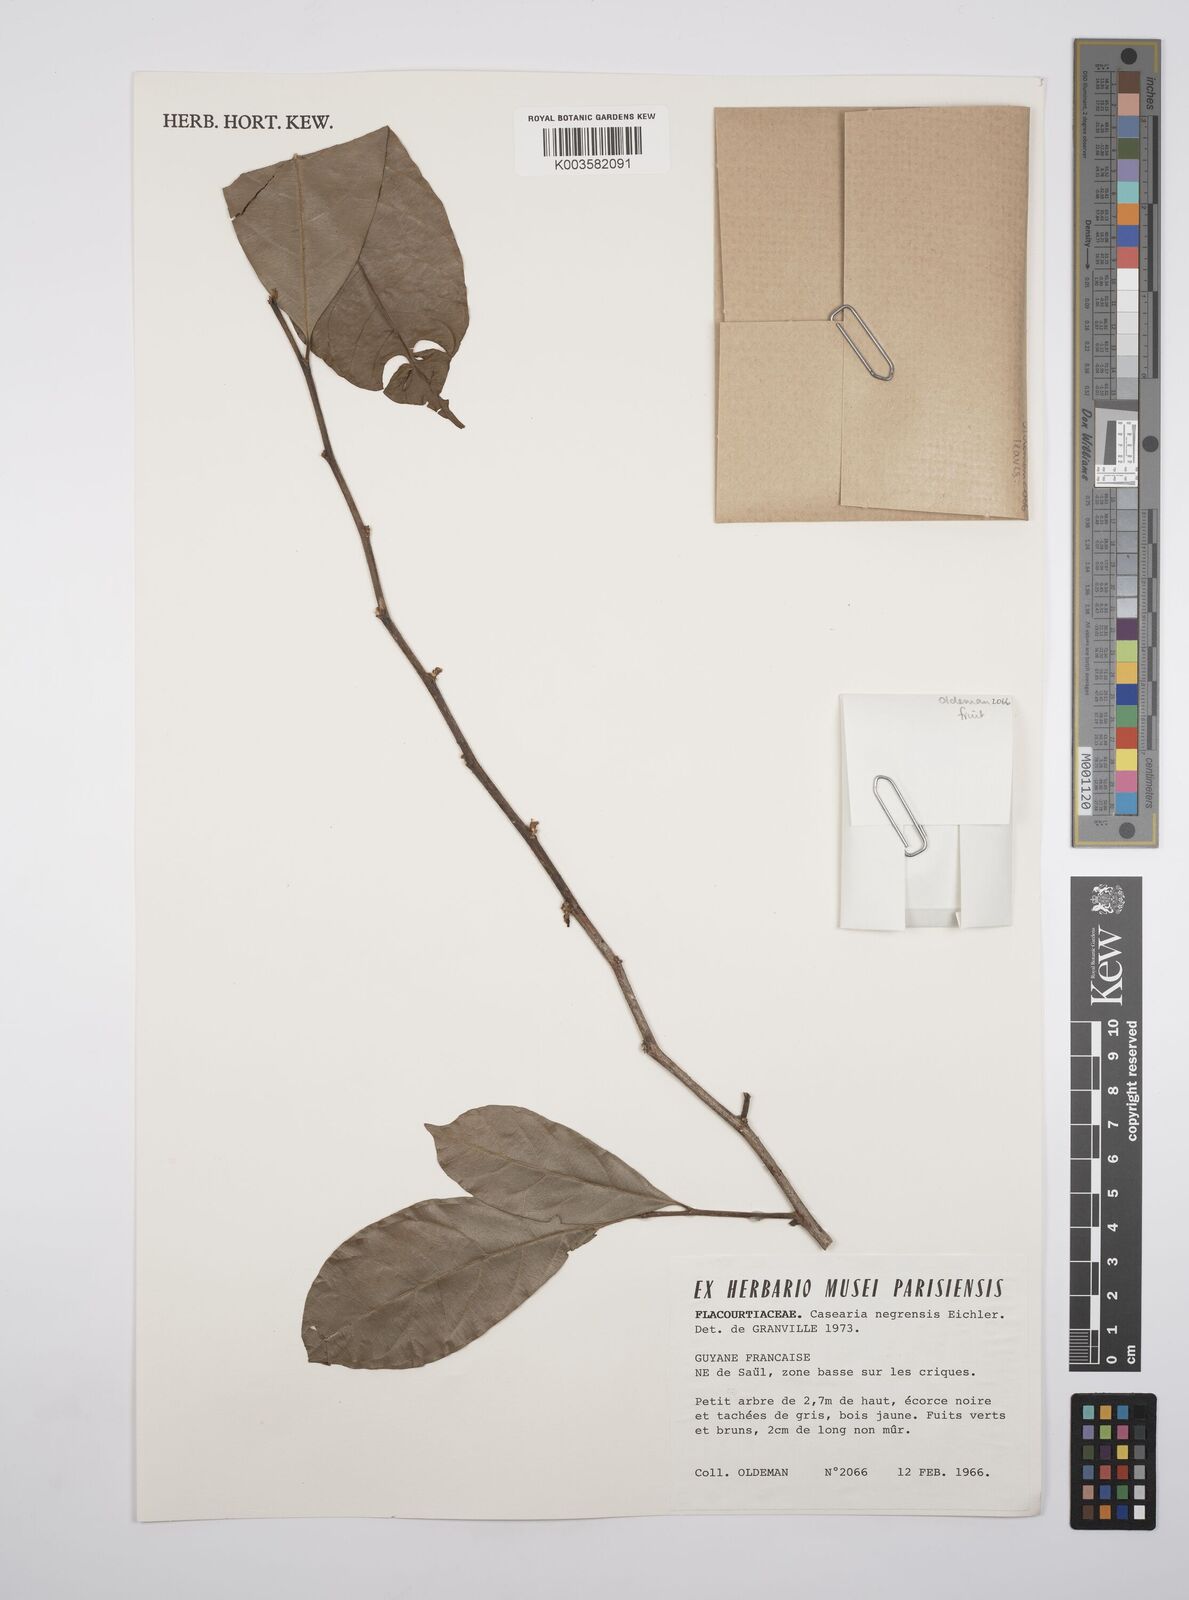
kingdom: Plantae
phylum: Tracheophyta
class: Magnoliopsida
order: Malpighiales
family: Salicaceae
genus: Casearia
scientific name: Casearia negrensis
